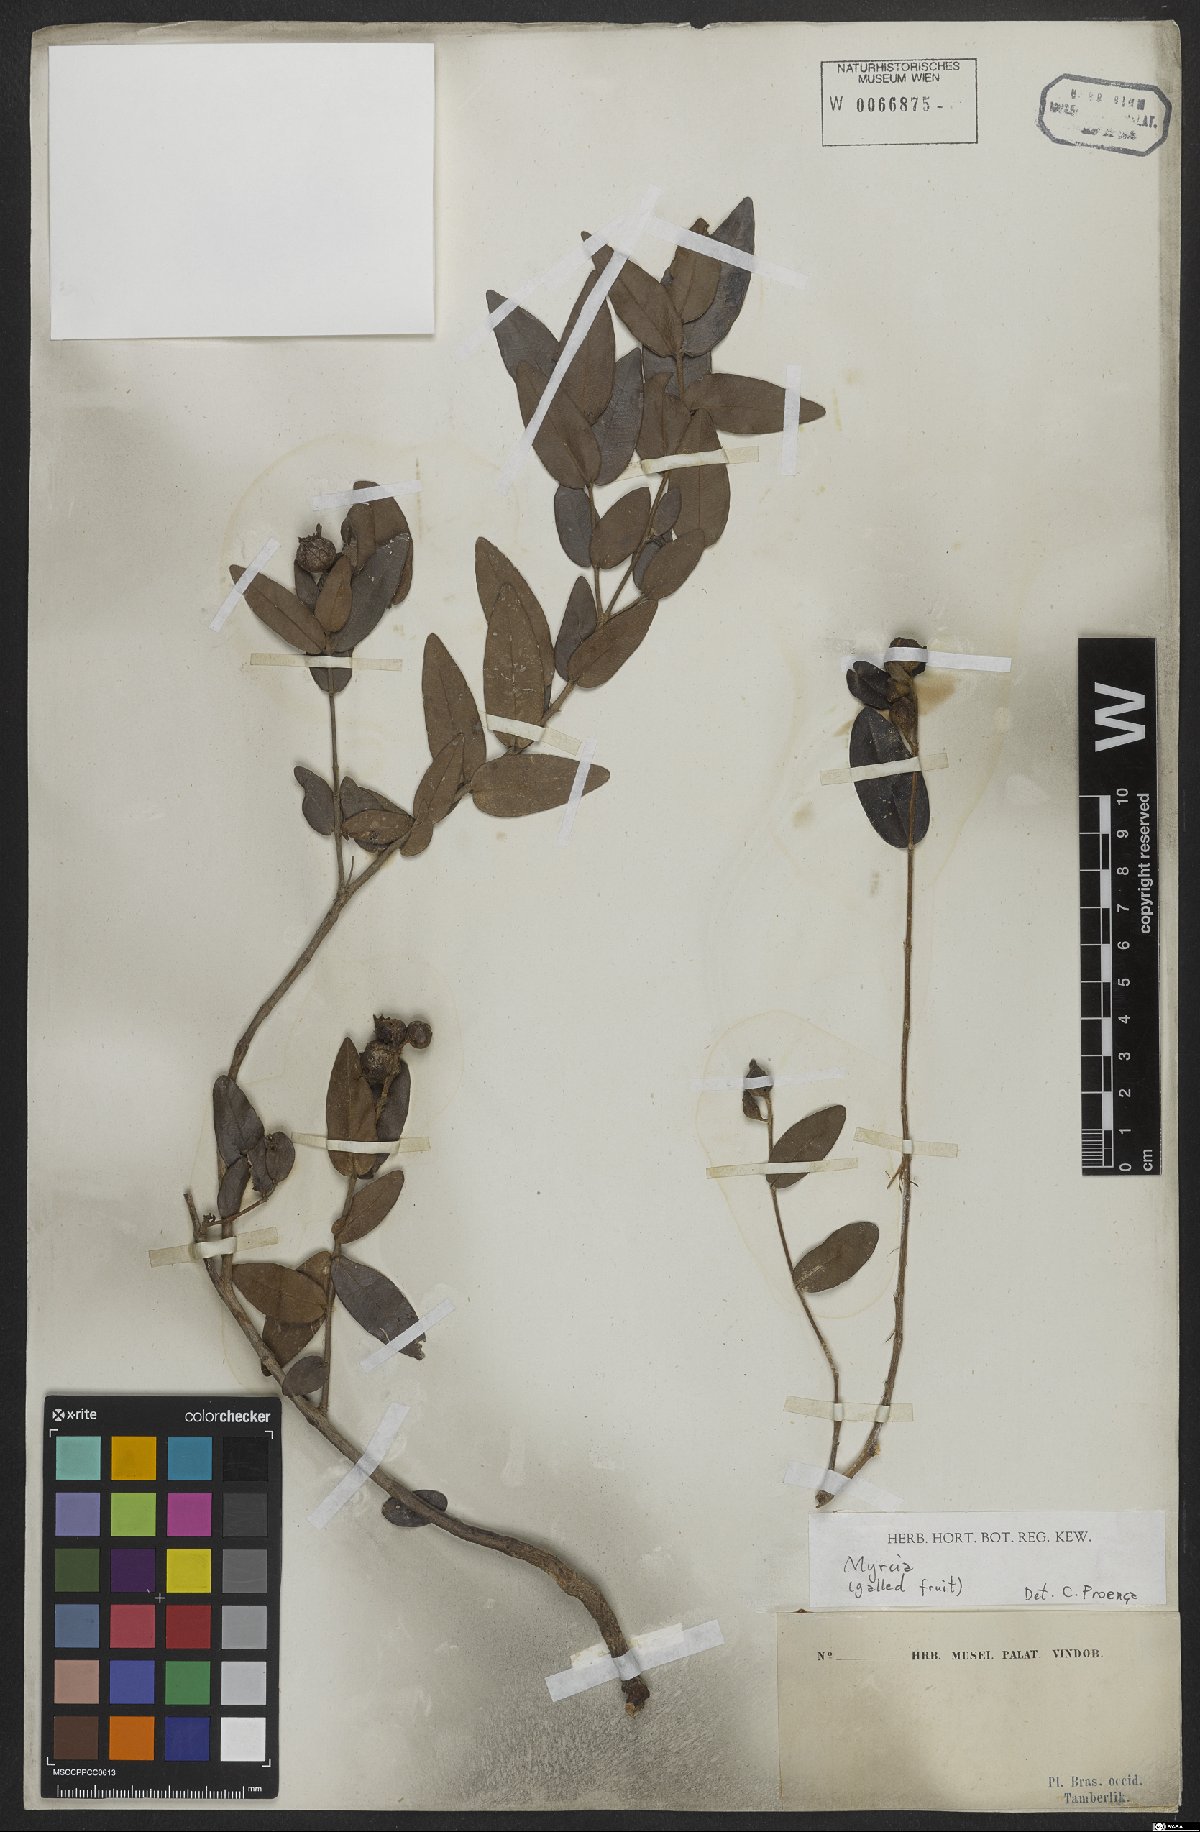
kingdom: Plantae
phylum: Tracheophyta
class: Magnoliopsida
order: Myrtales
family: Myrtaceae
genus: Myrcia
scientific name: Myrcia
